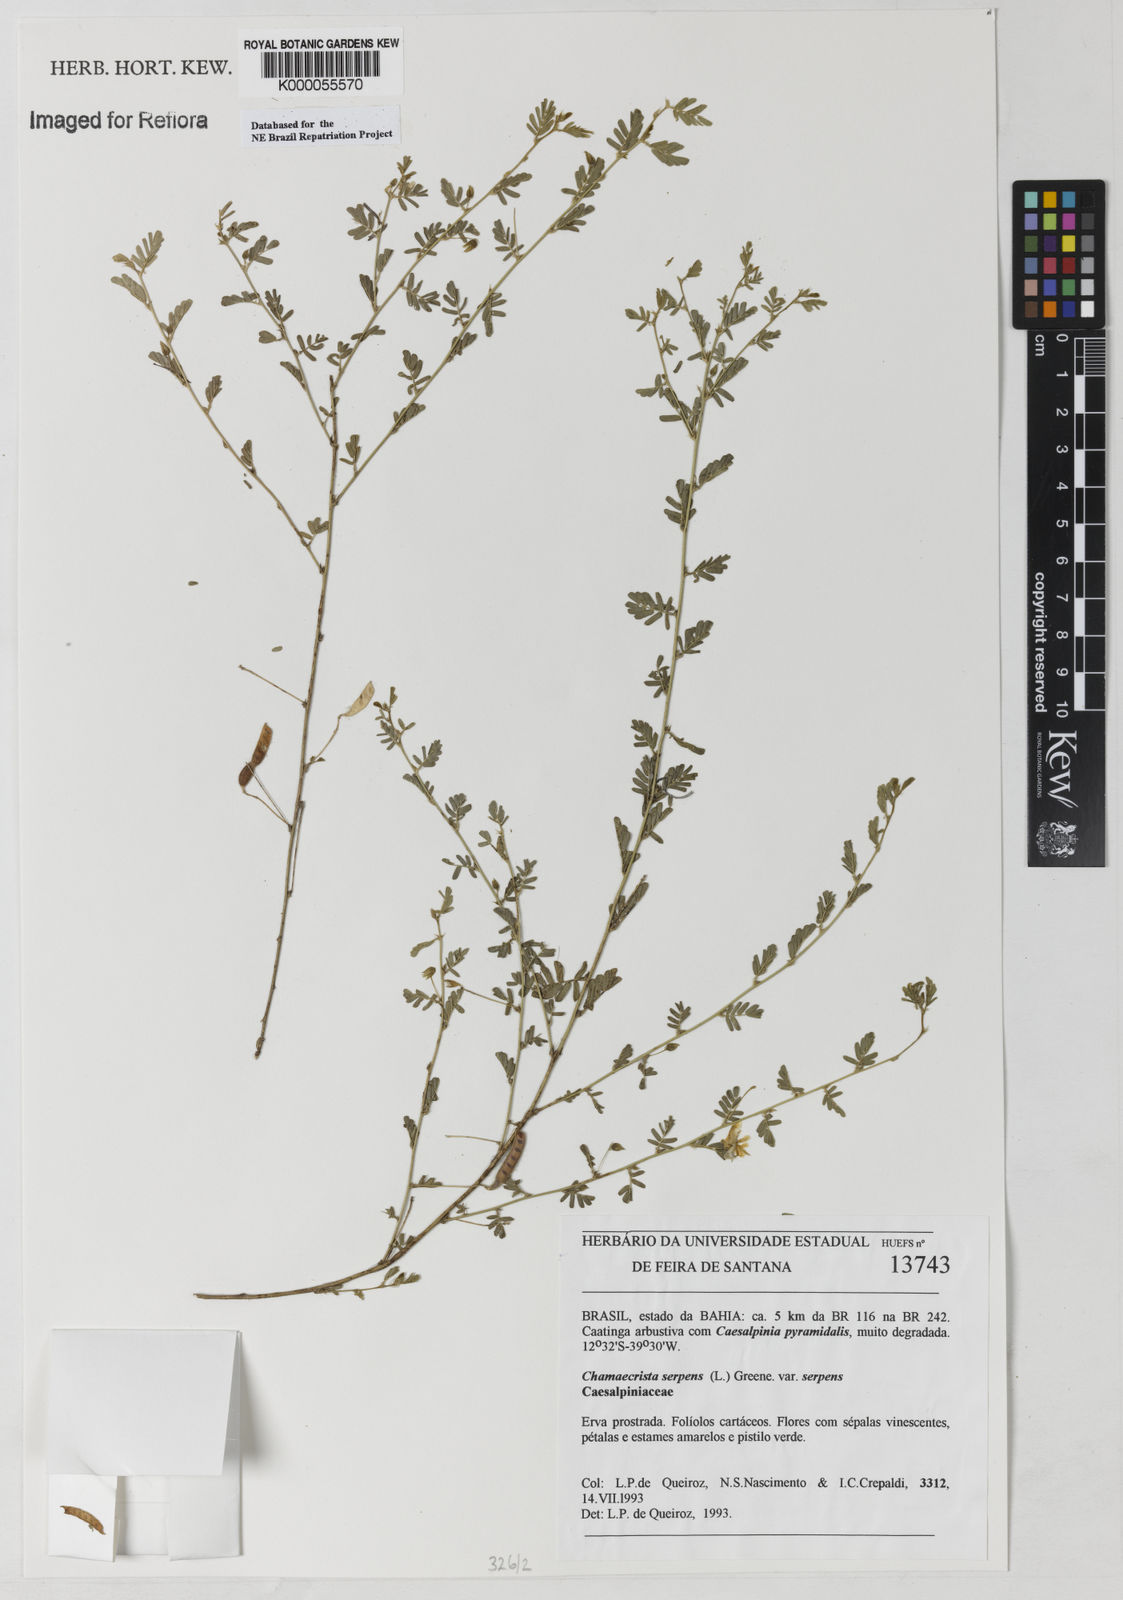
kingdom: Plantae
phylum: Tracheophyta
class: Magnoliopsida
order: Fabales
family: Fabaceae
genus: Chamaecrista
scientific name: Chamaecrista serpens
